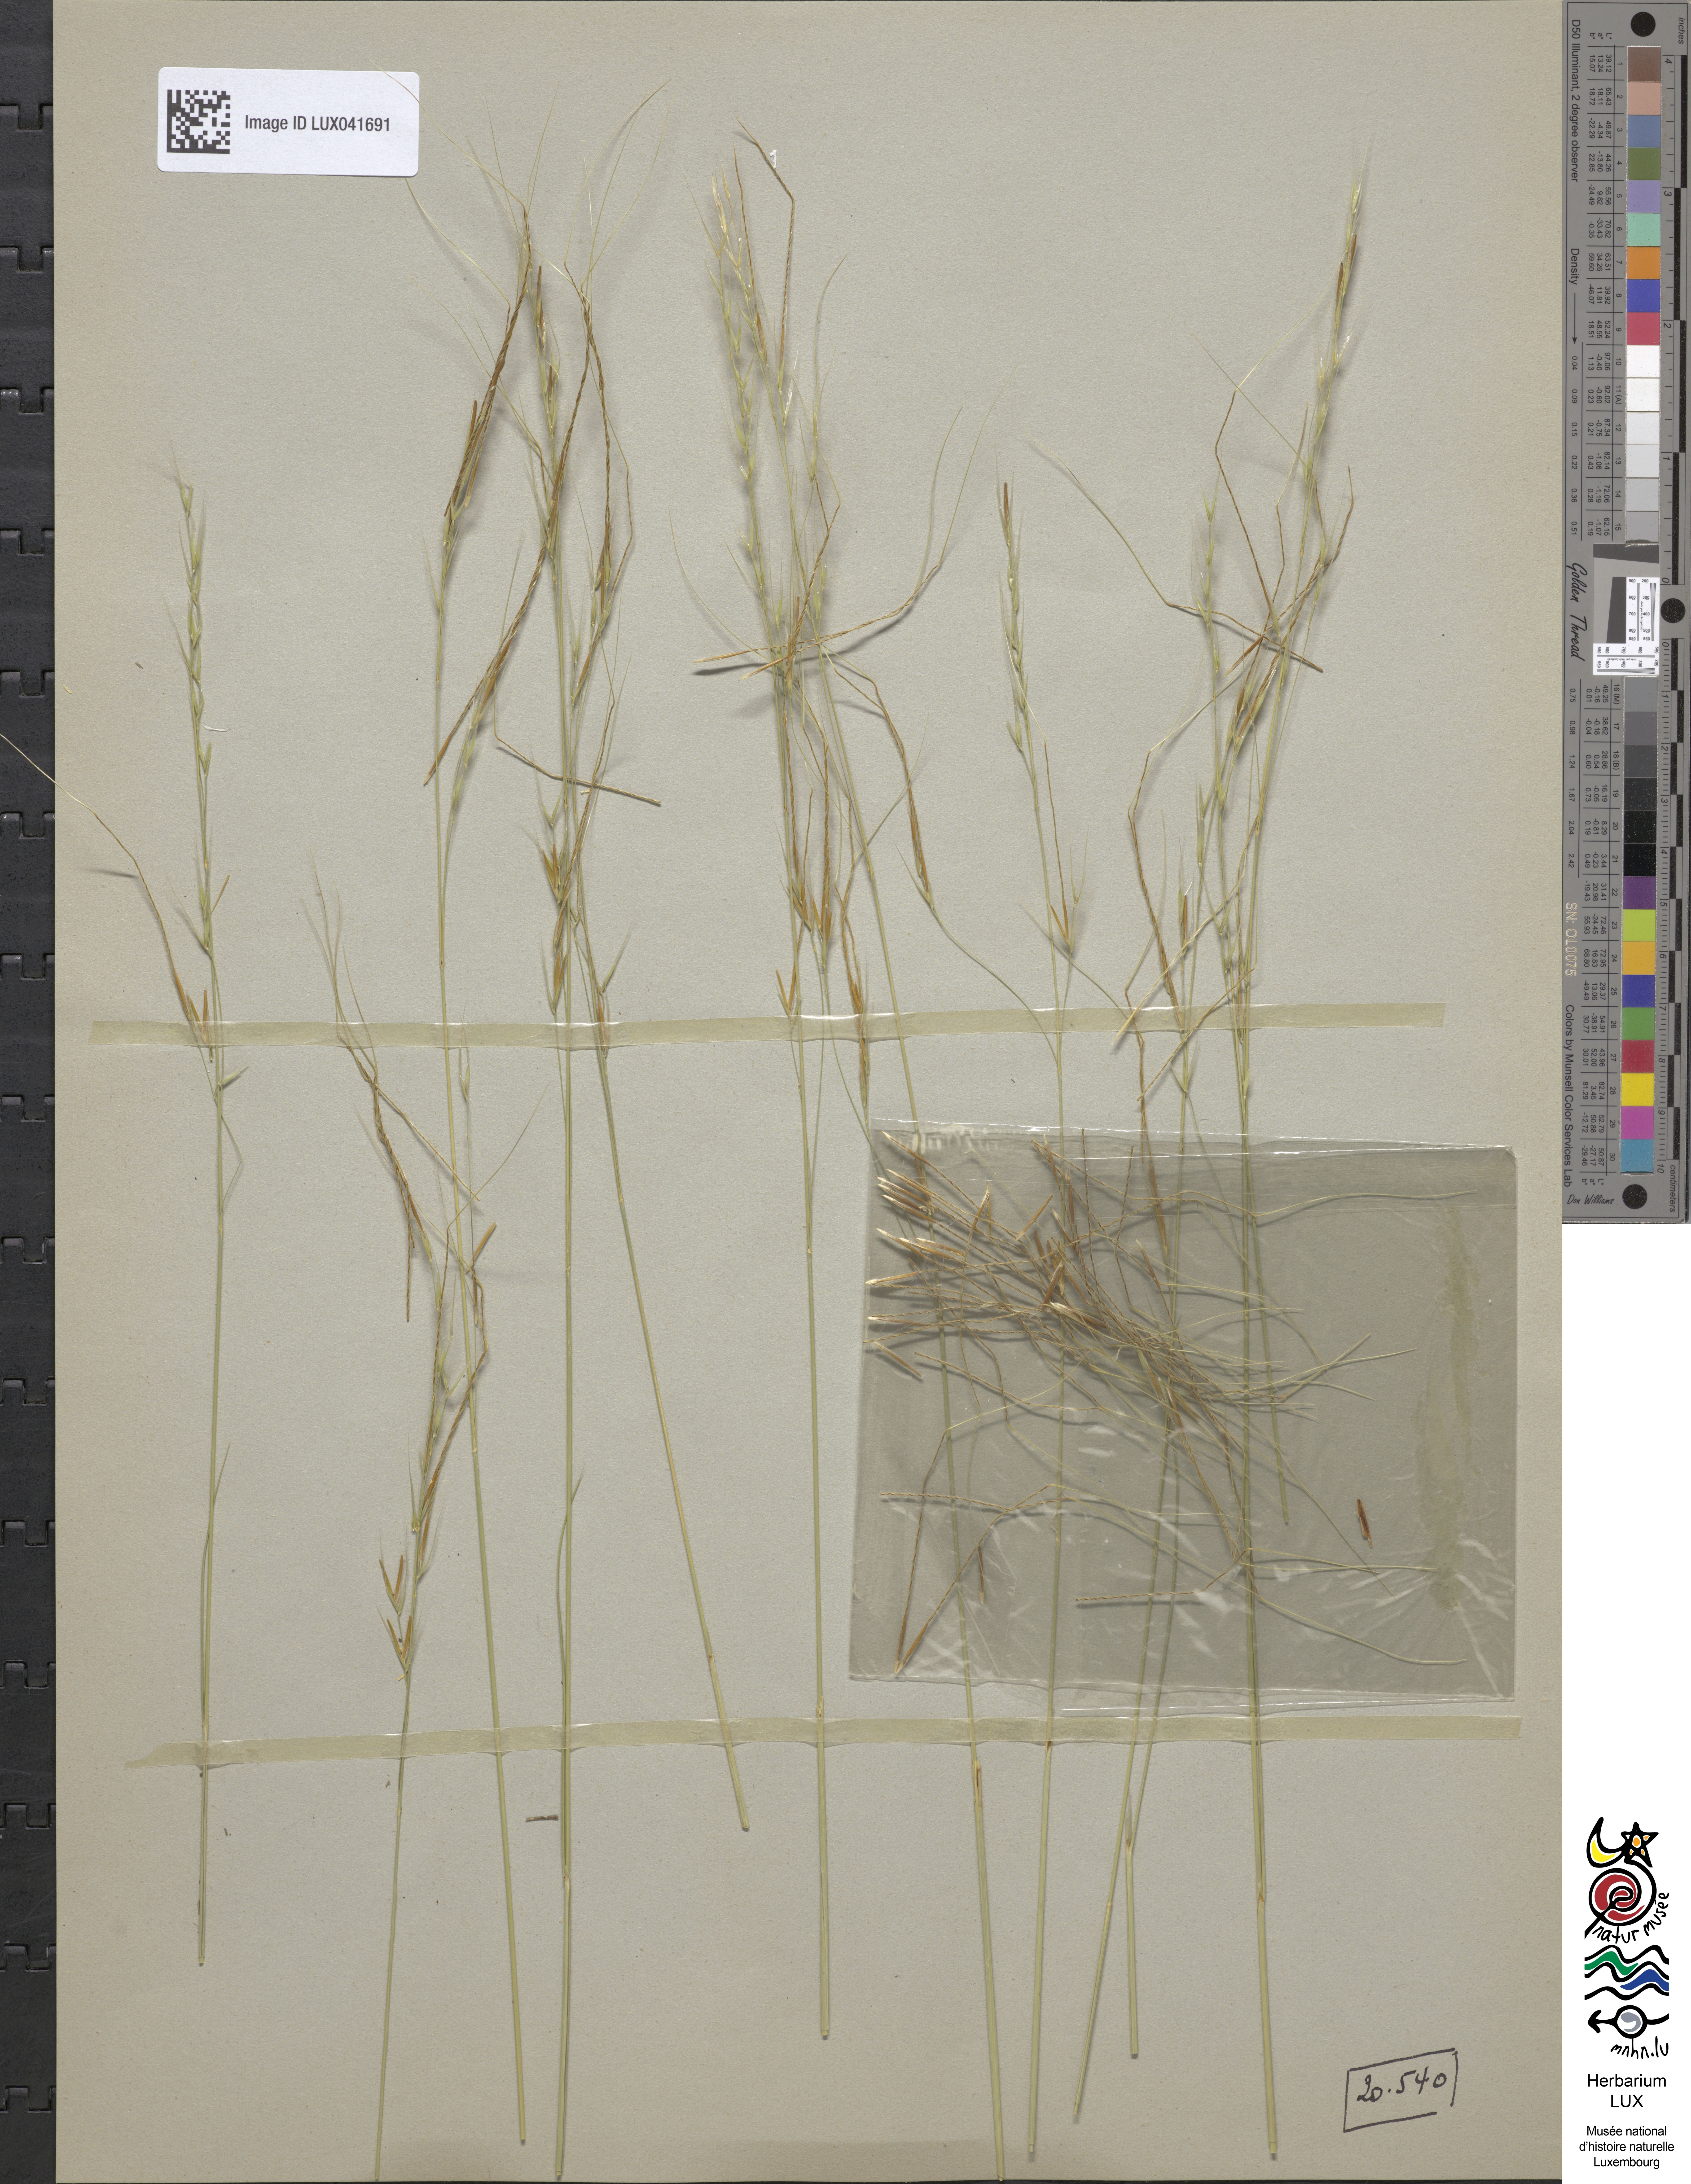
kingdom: Plantae
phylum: Tracheophyta
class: Liliopsida
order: Poales
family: Poaceae
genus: Stipa
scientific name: Stipa juncea
